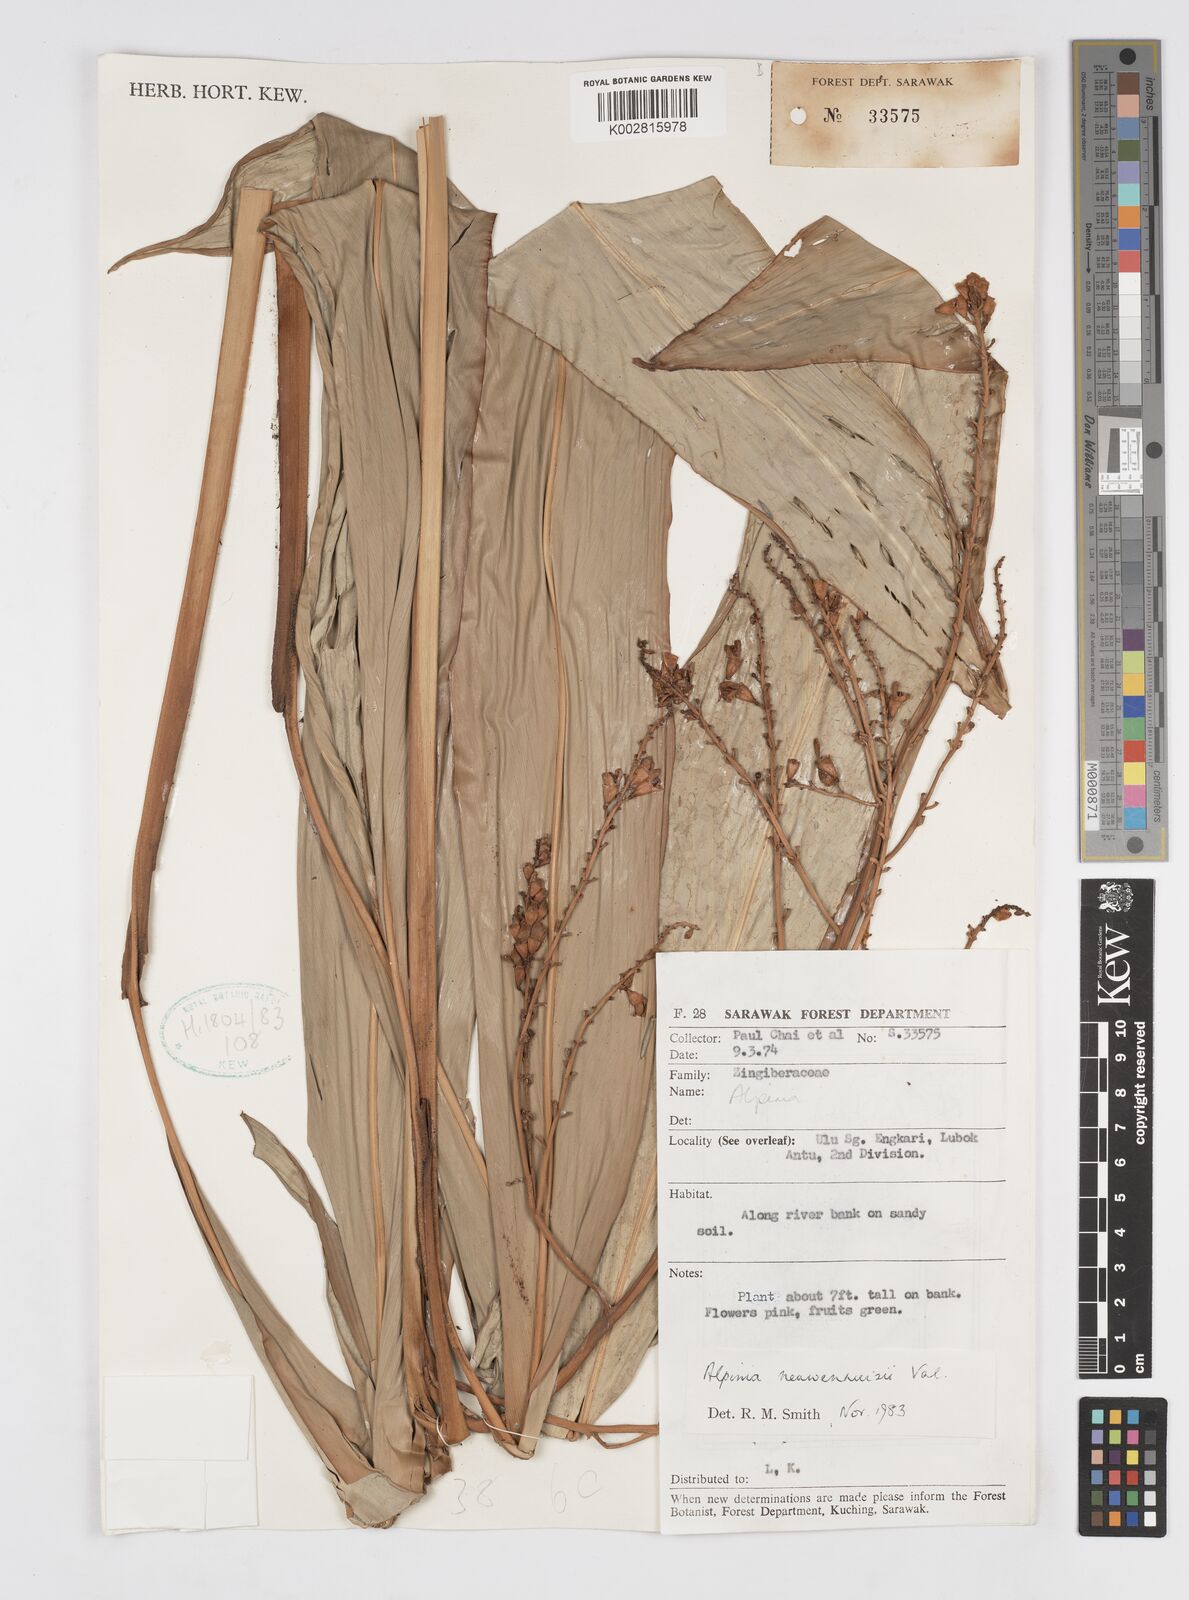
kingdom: Plantae
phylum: Tracheophyta
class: Liliopsida
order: Zingiberales
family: Zingiberaceae
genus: Alpinia
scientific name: Alpinia nieuwenhuizii
